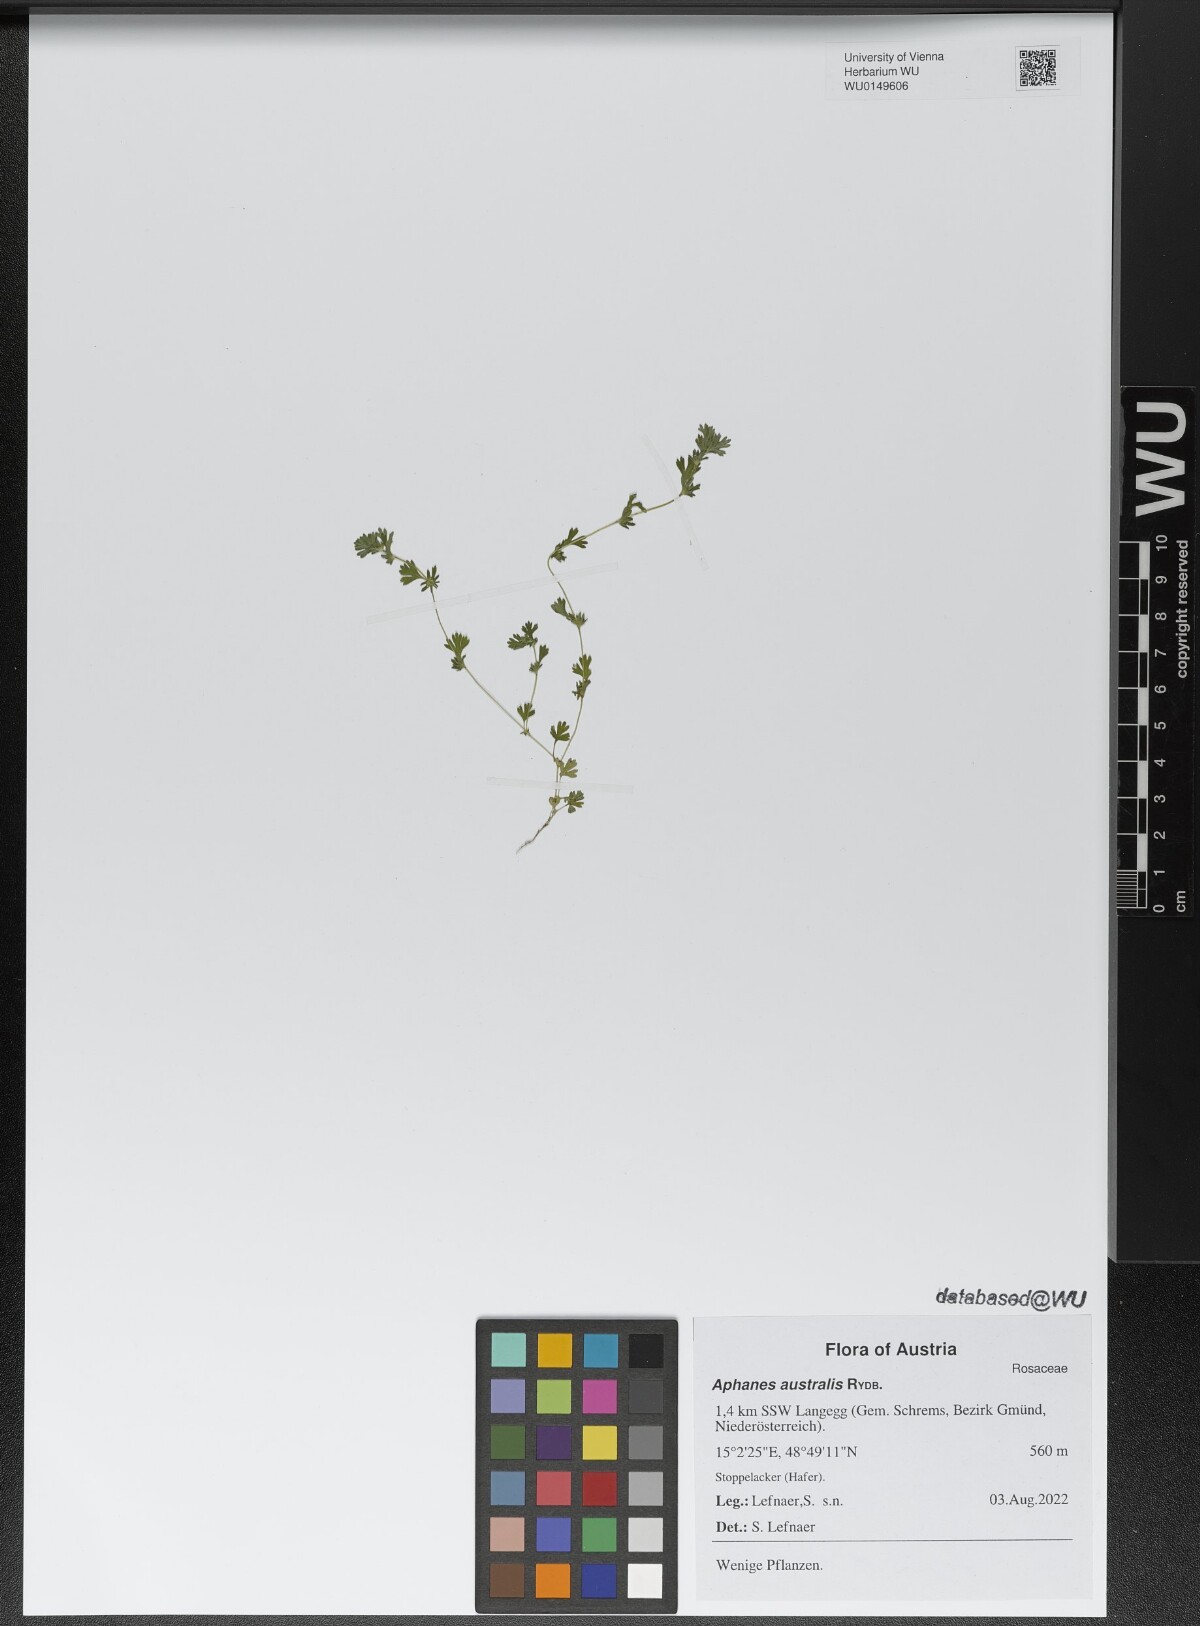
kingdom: Plantae
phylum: Tracheophyta
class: Magnoliopsida
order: Rosales
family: Rosaceae
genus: Aphanes
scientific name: Aphanes australis
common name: Slender parsley-piert
